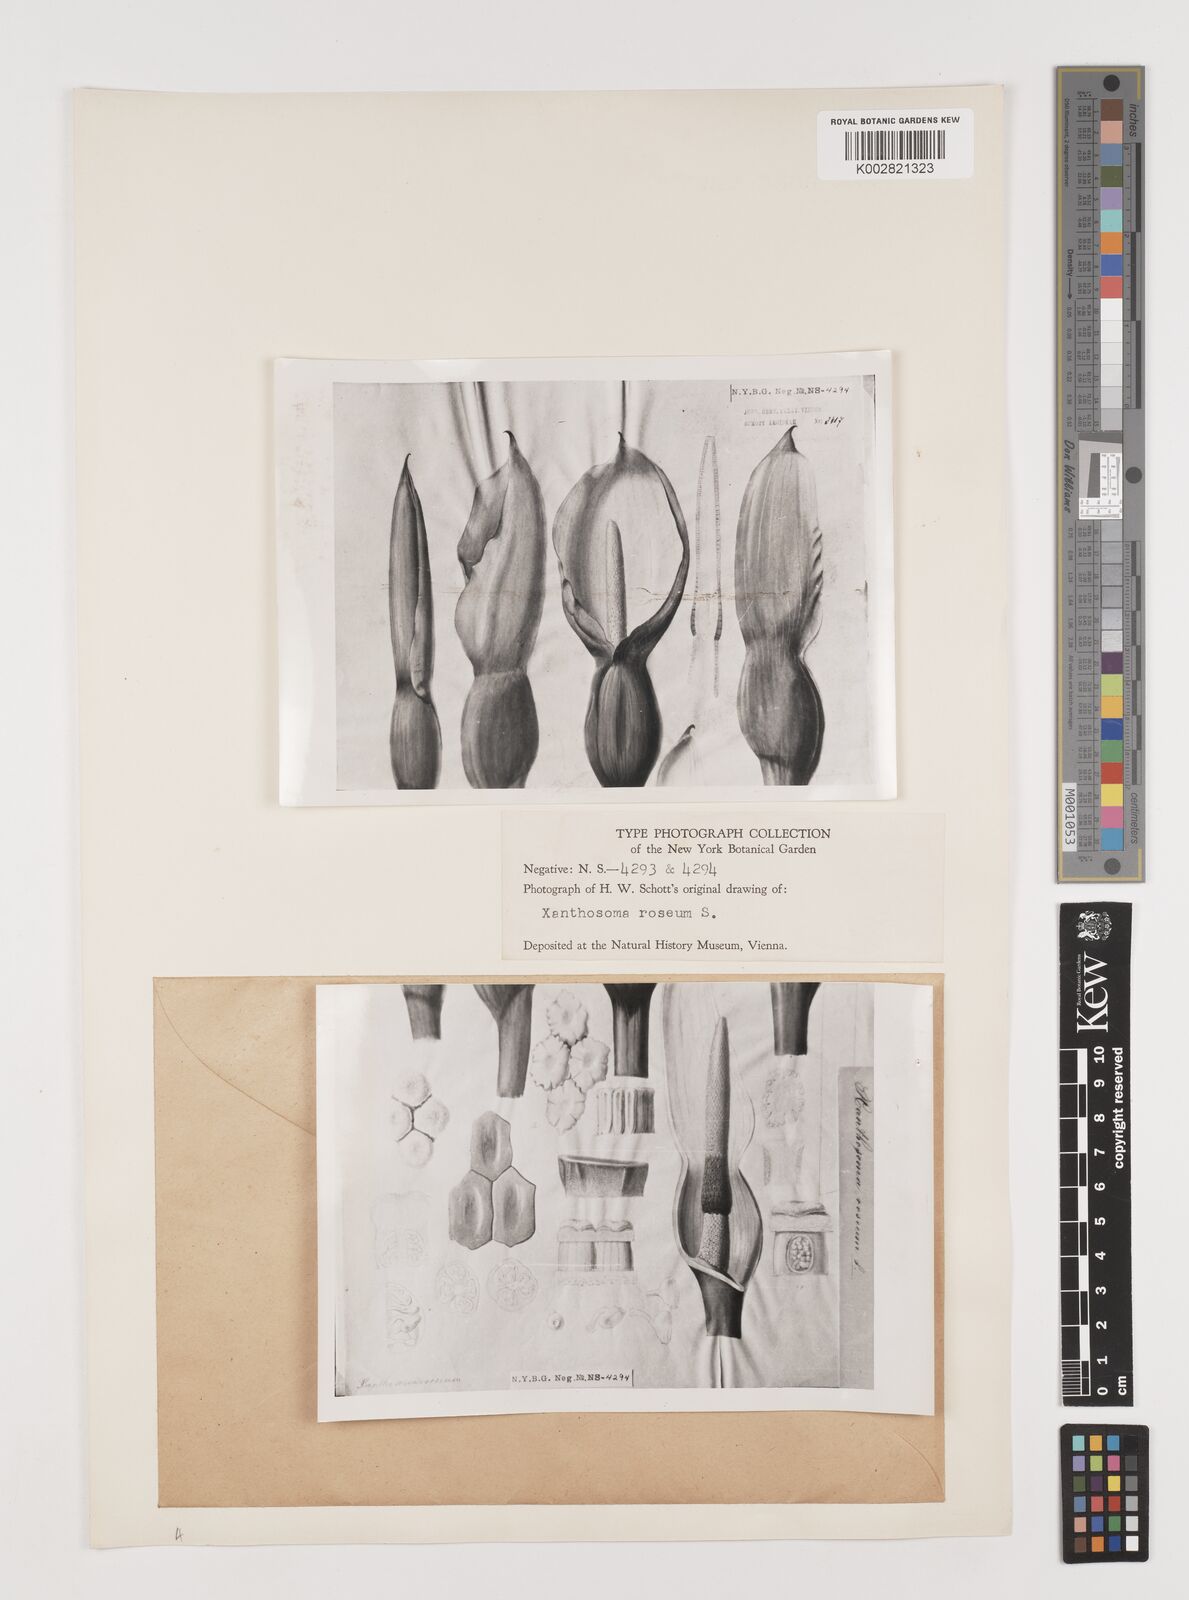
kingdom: Plantae
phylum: Tracheophyta
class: Liliopsida
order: Alismatales
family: Araceae
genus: Xanthosoma
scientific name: Xanthosoma sagittifolium
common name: Arrowleaf elephant's ear
